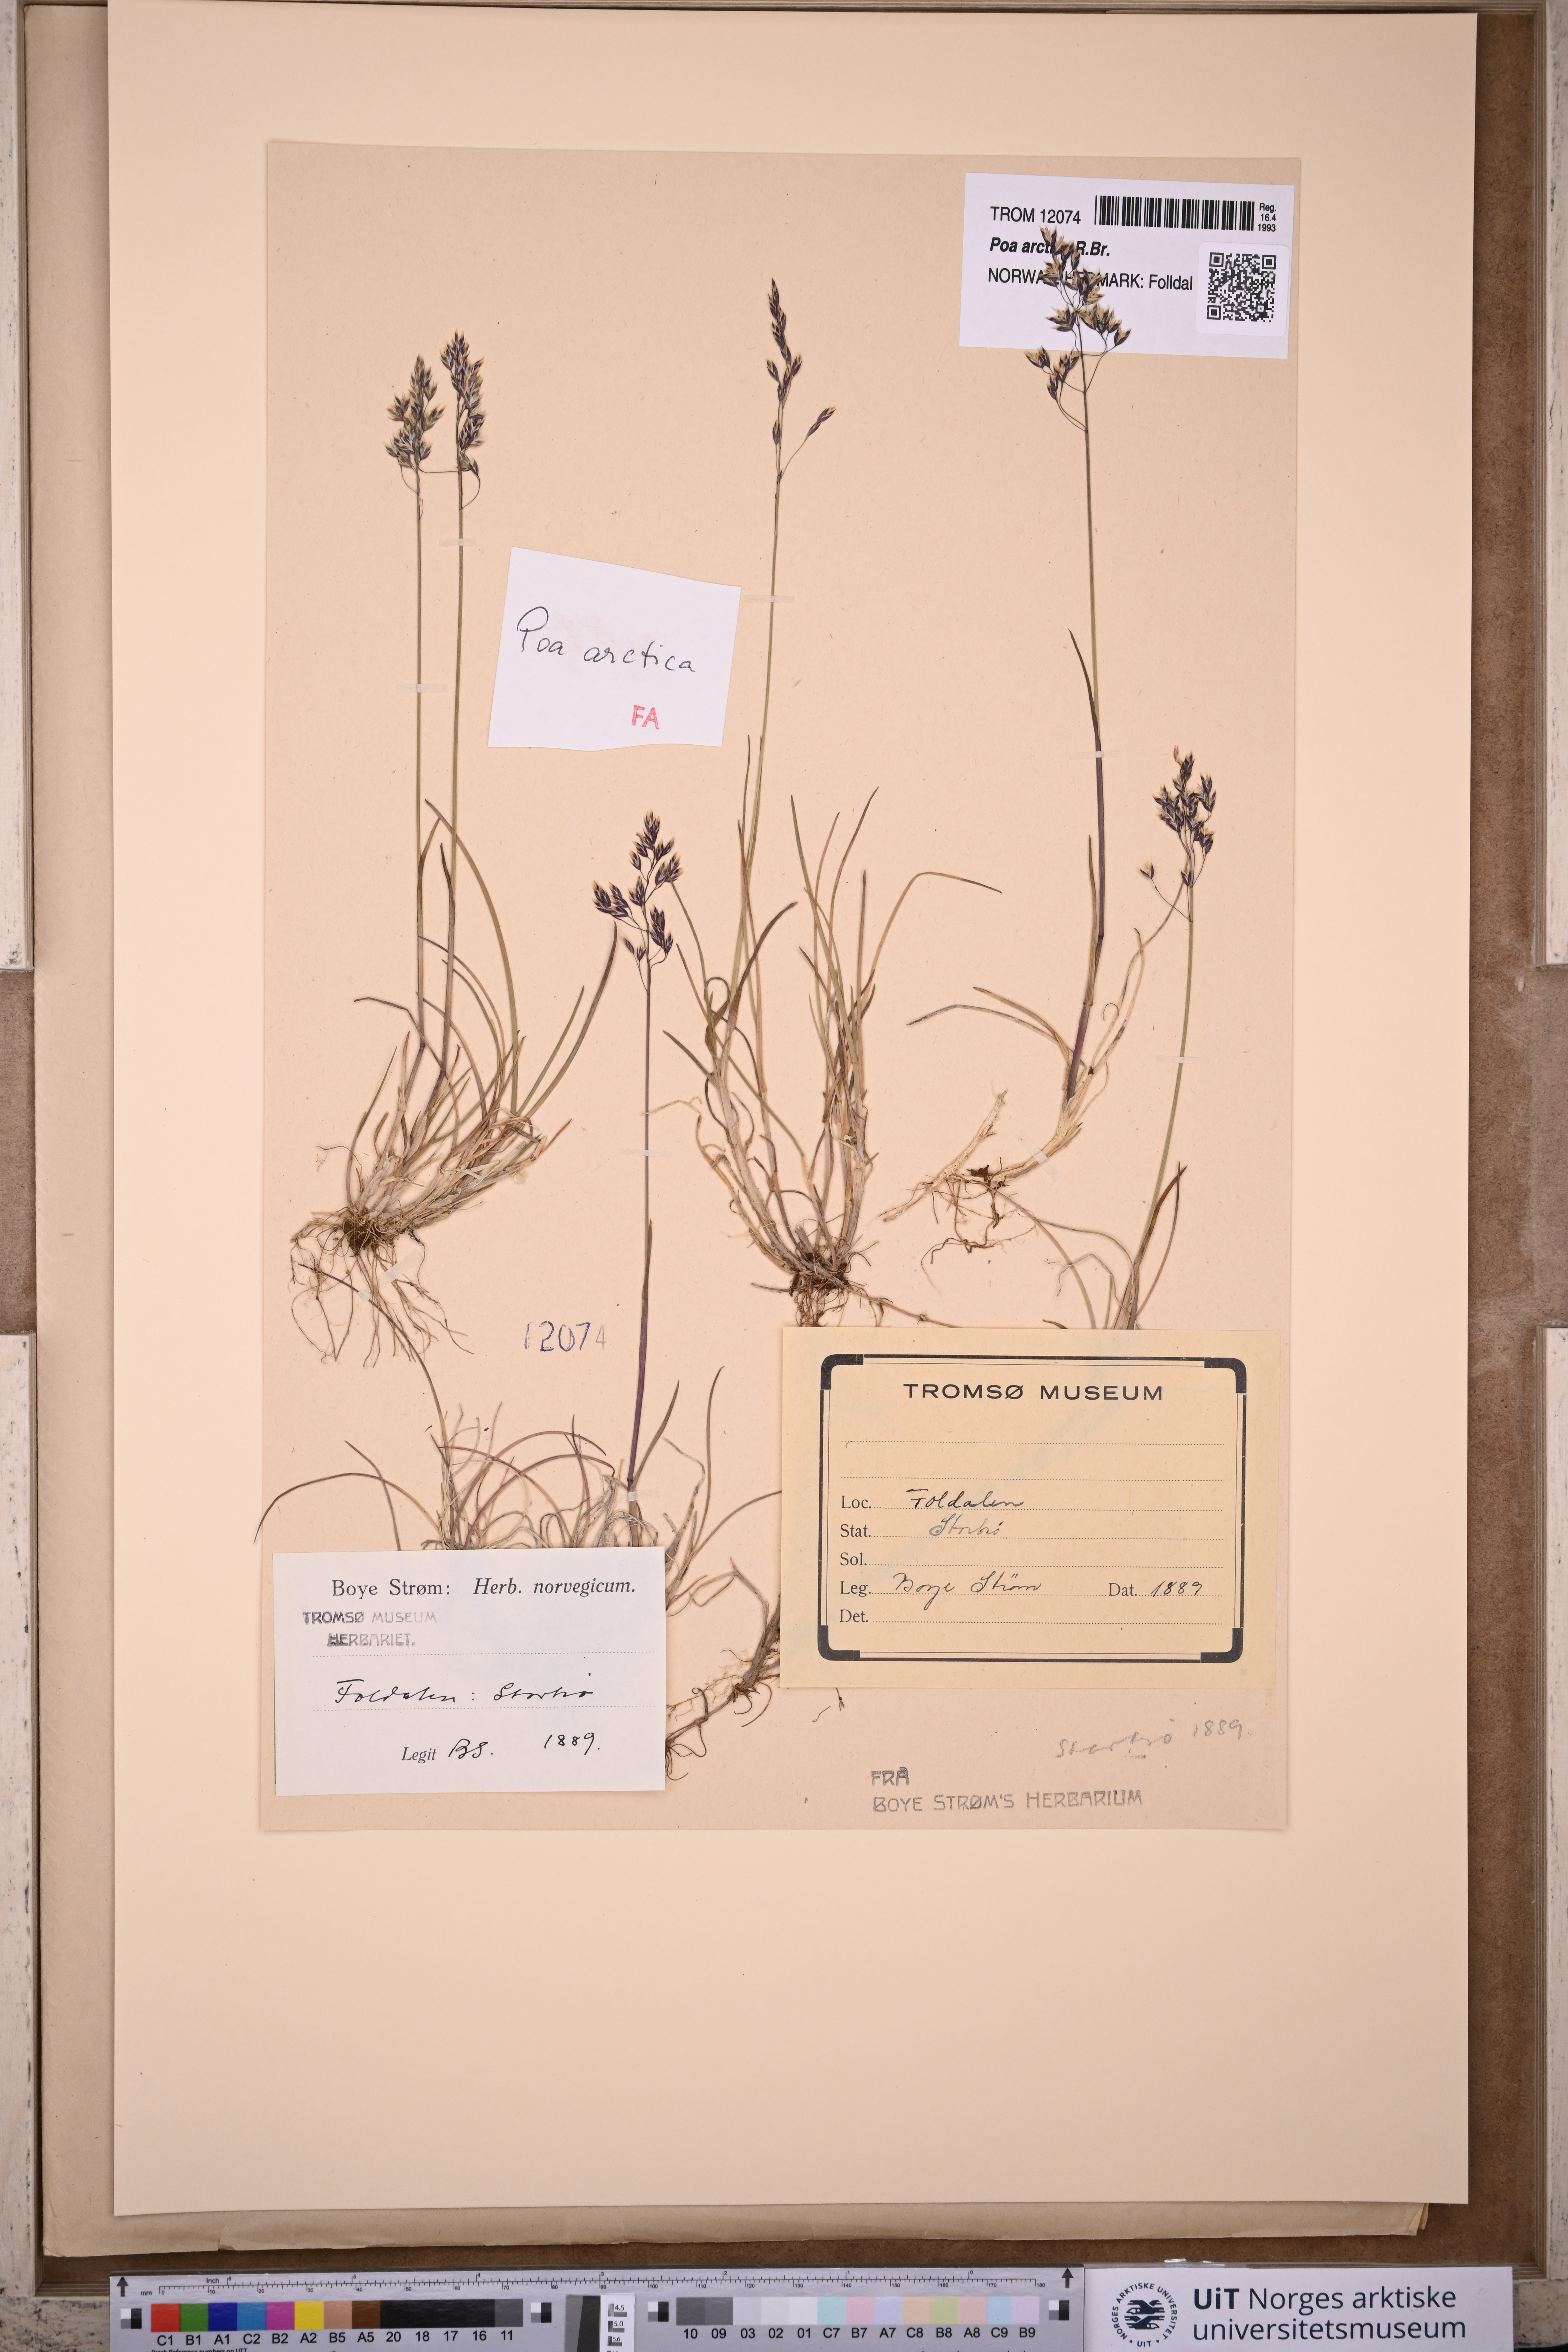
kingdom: Plantae
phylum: Tracheophyta
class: Liliopsida
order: Poales
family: Poaceae
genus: Poa
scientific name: Poa arctica
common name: Arctic bluegrass
